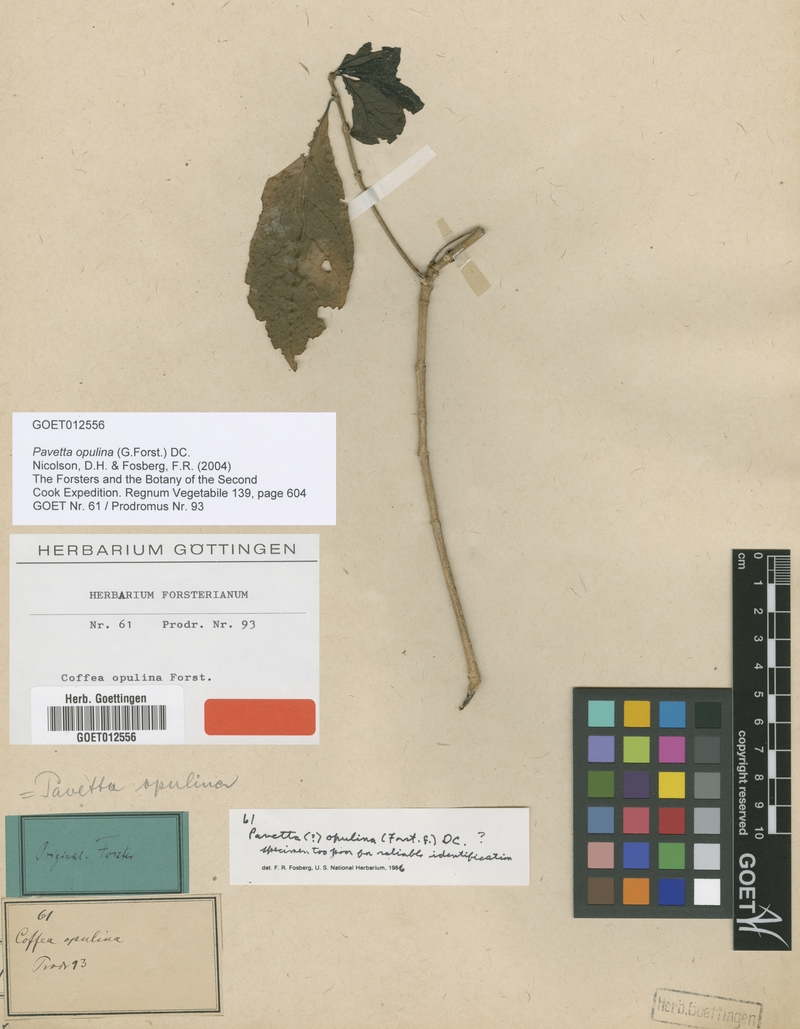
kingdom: Plantae
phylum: Tracheophyta
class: Magnoliopsida
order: Gentianales
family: Rubiaceae
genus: Pavetta
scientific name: Pavetta opulina
